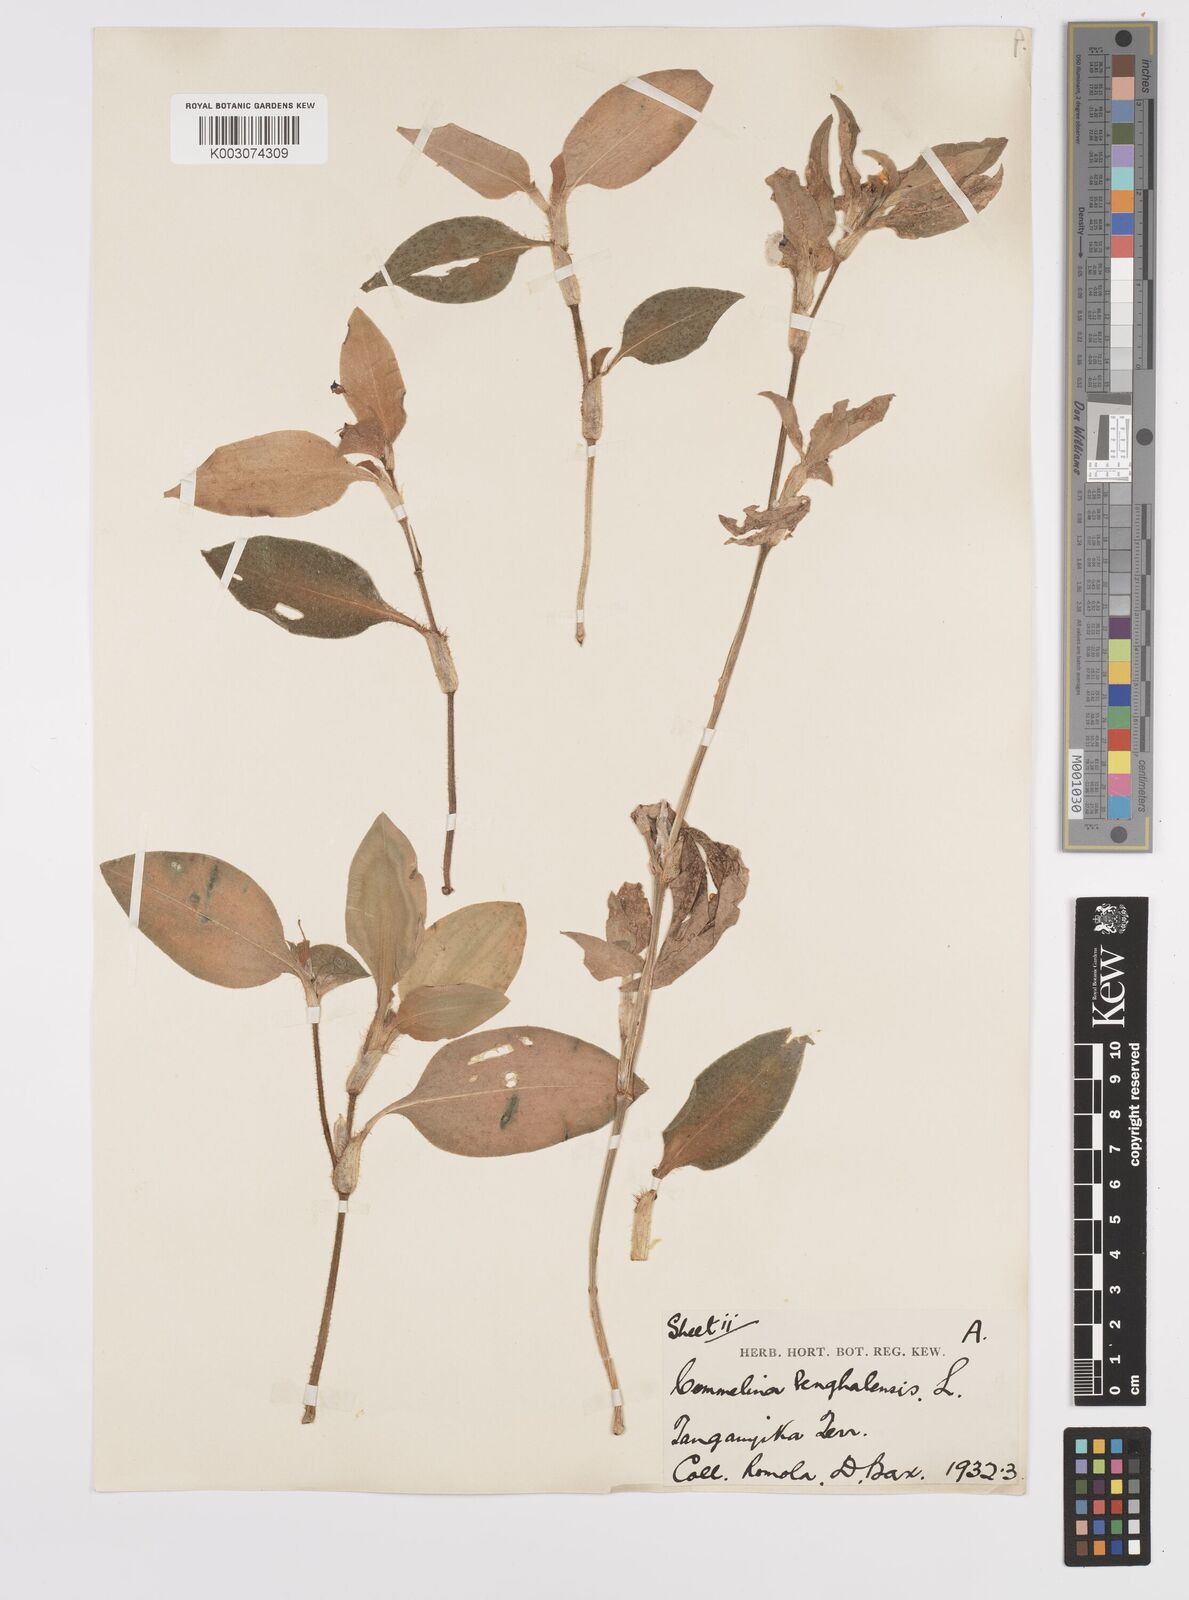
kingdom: Plantae
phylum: Tracheophyta
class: Liliopsida
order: Commelinales
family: Commelinaceae
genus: Commelina
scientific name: Commelina benghalensis
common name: Jio
